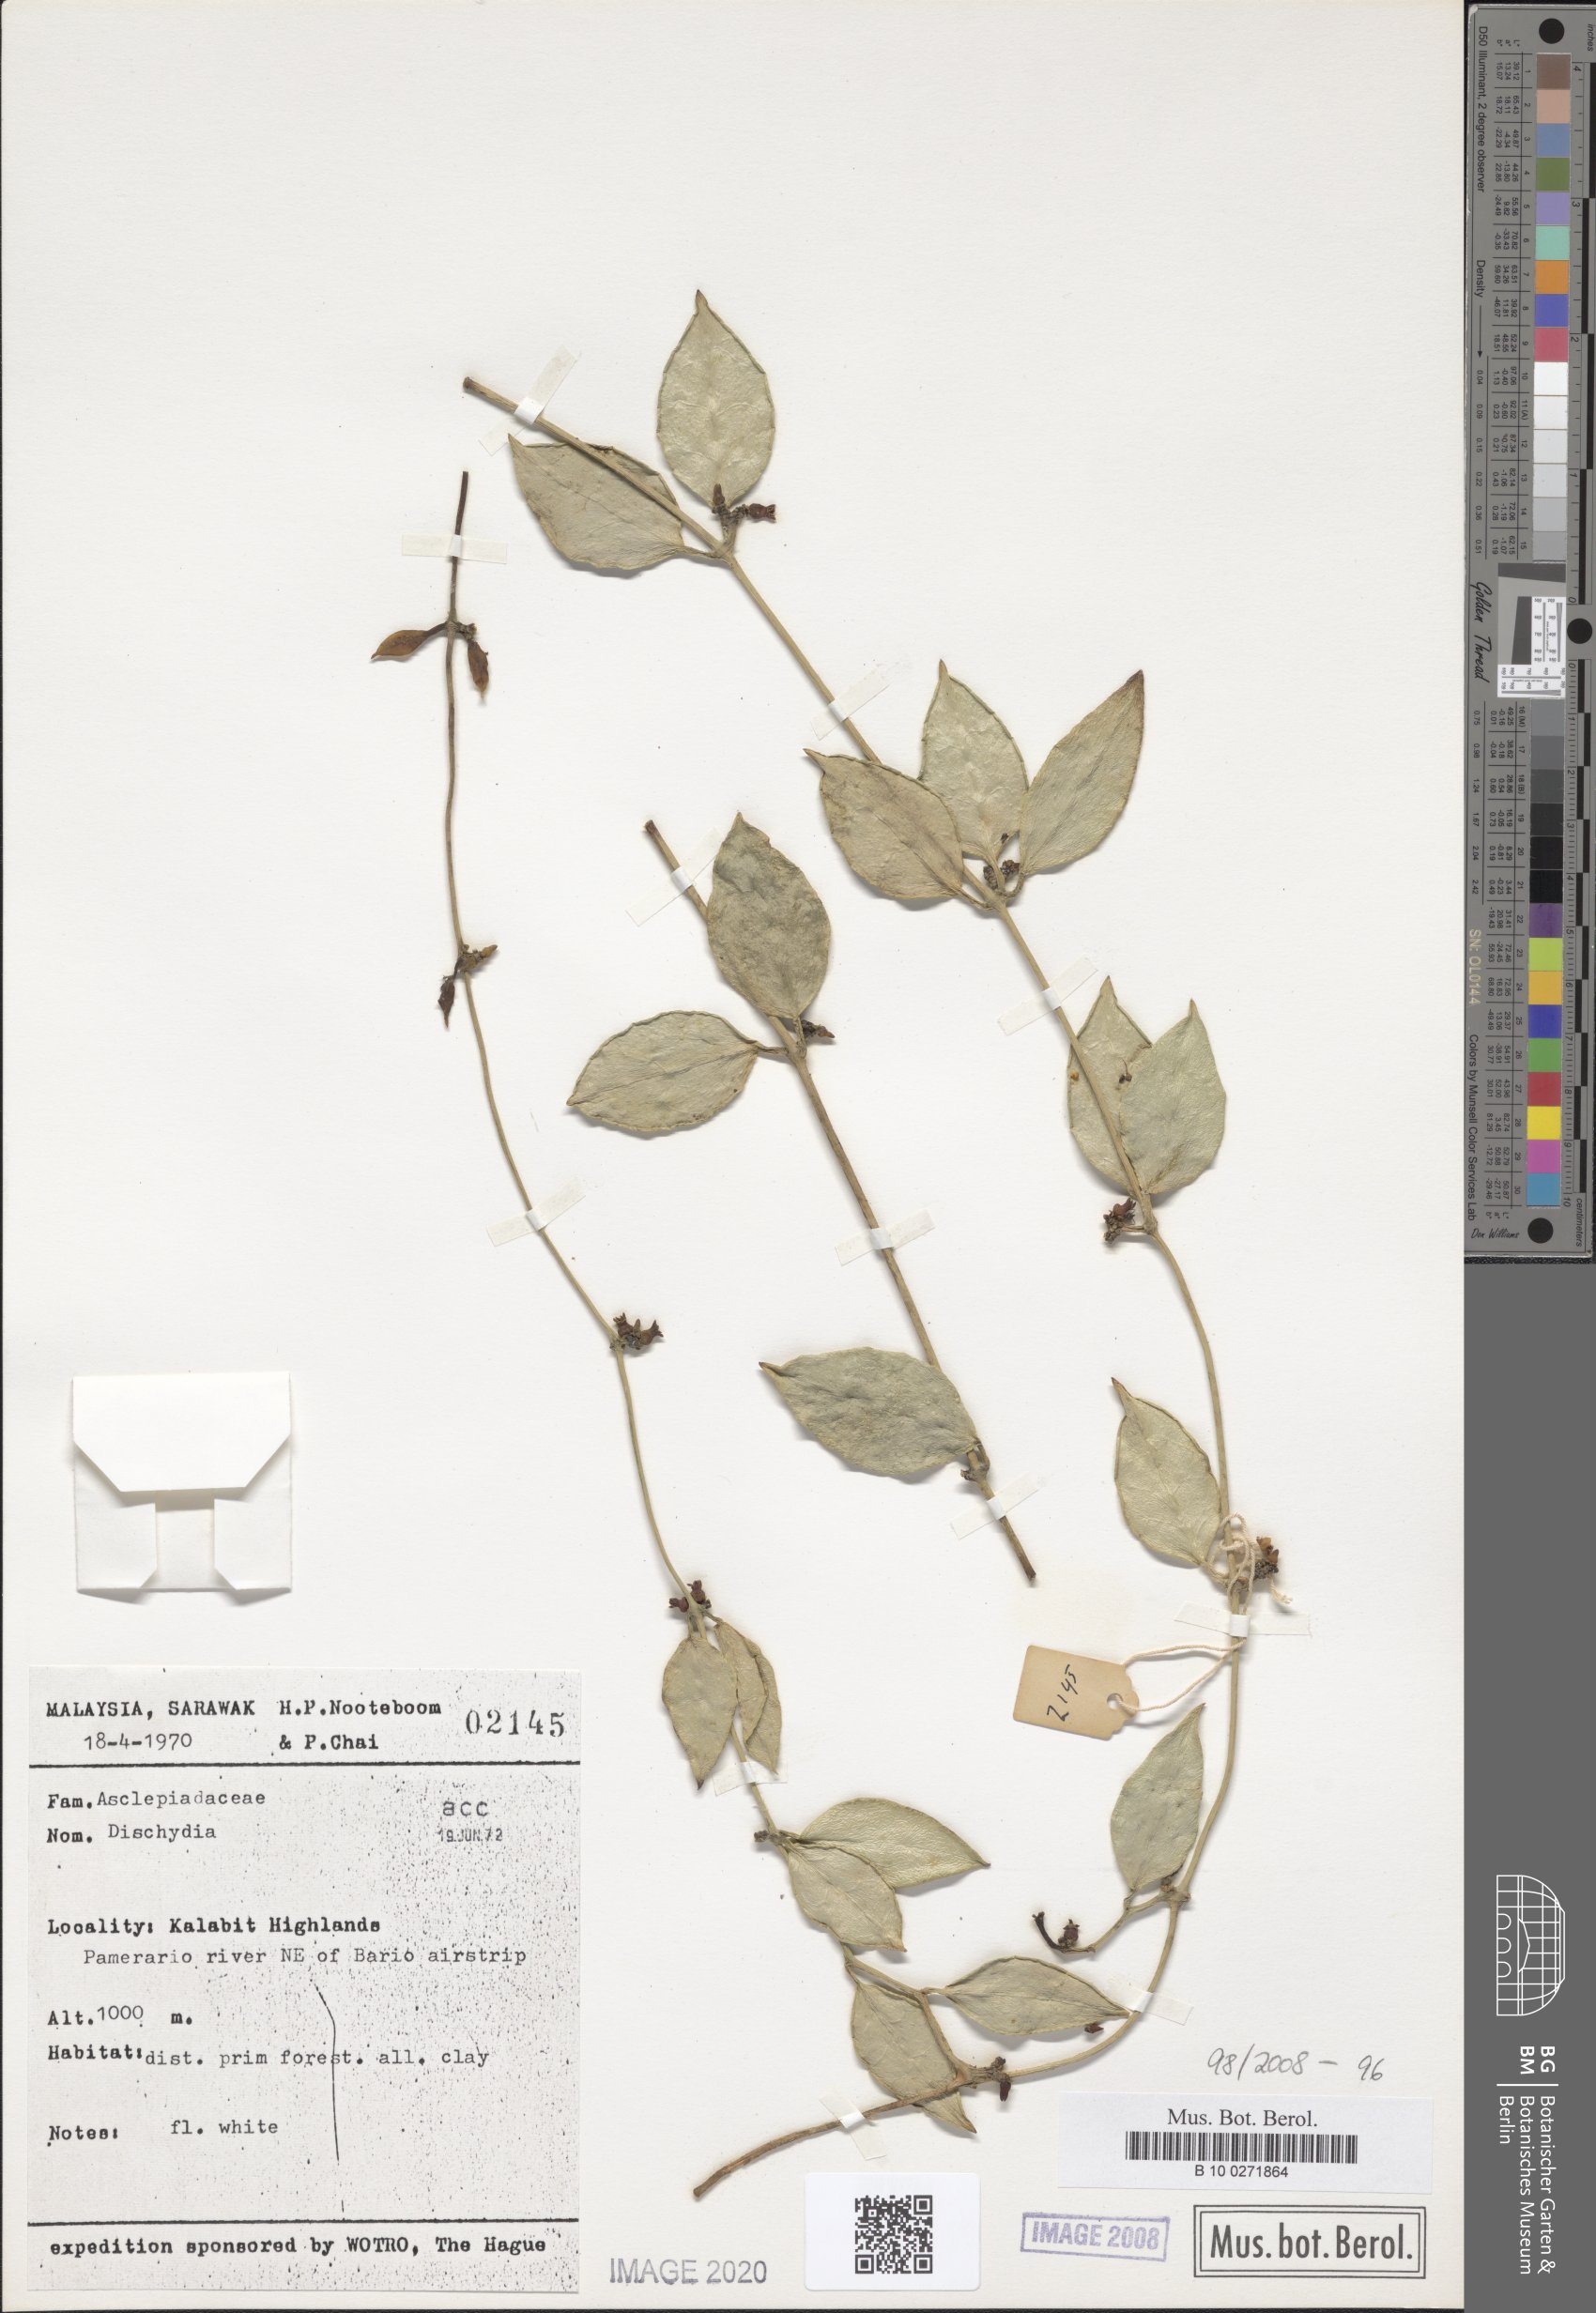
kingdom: Plantae
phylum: Tracheophyta
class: Magnoliopsida
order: Gentianales
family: Apocynaceae
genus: Dischidia
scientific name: Dischidia
